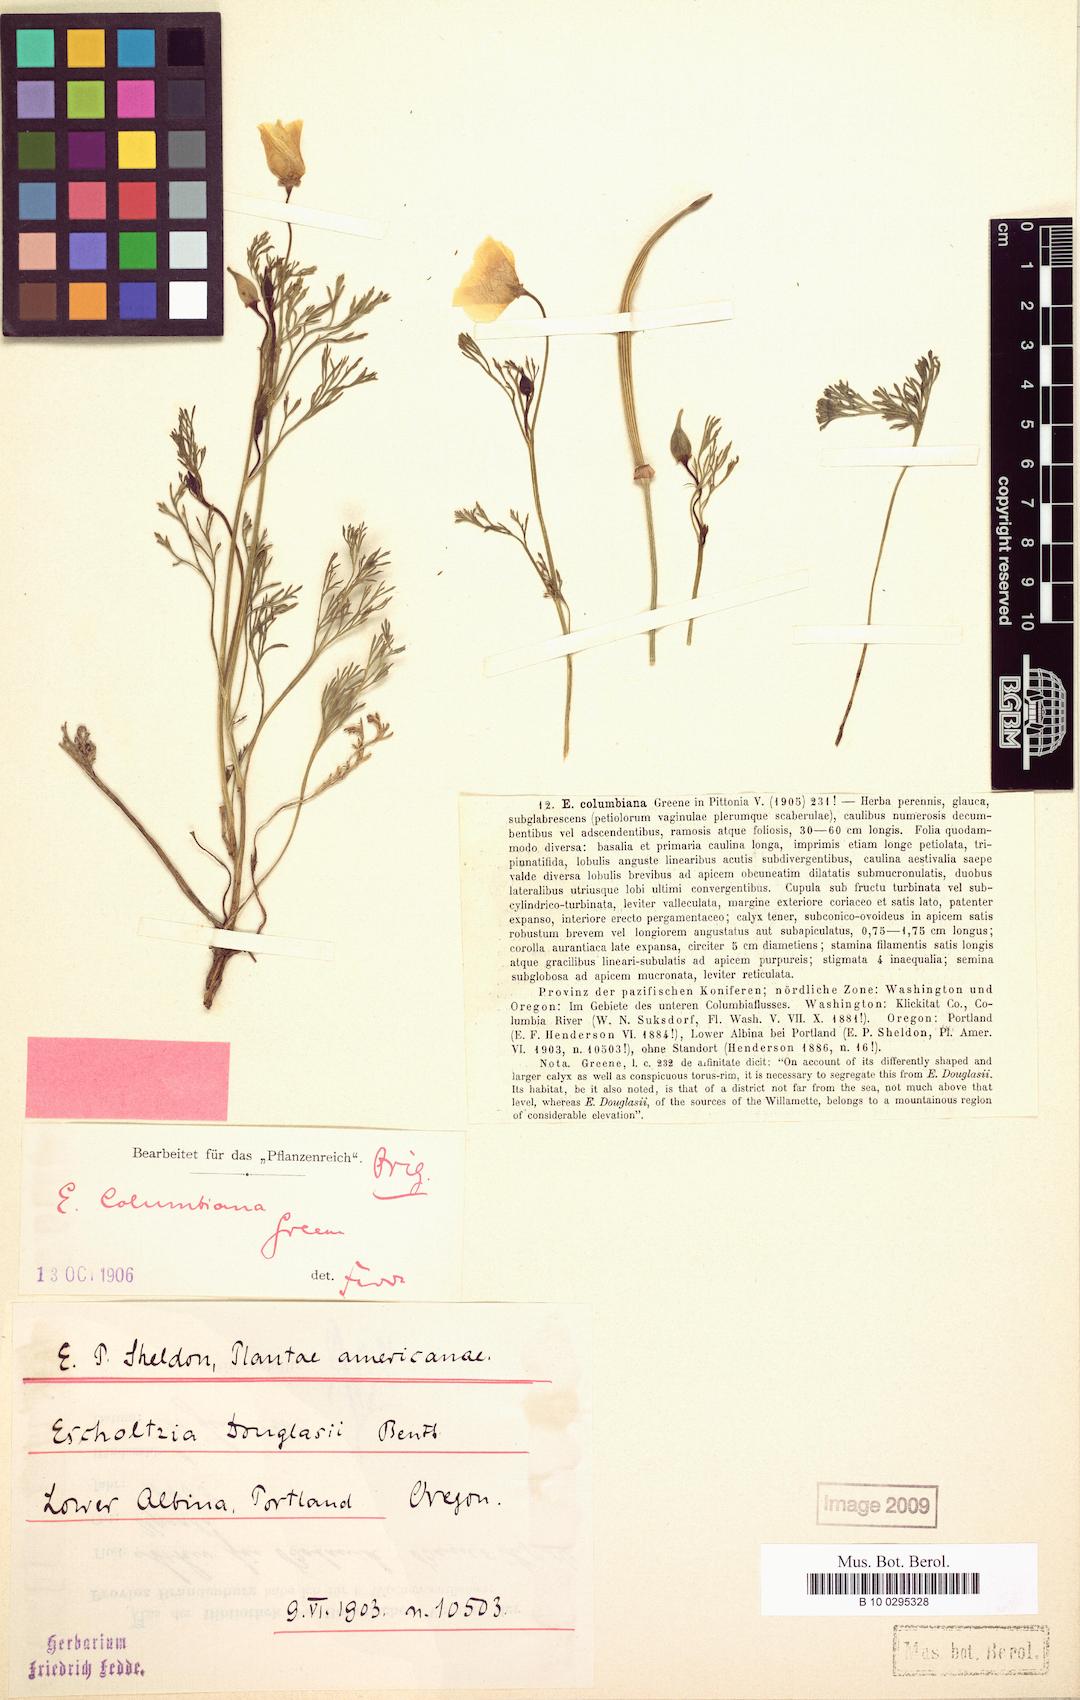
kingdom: Plantae
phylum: Tracheophyta
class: Magnoliopsida
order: Ranunculales
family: Papaveraceae
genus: Eschscholzia
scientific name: Eschscholzia californica
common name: California poppy
